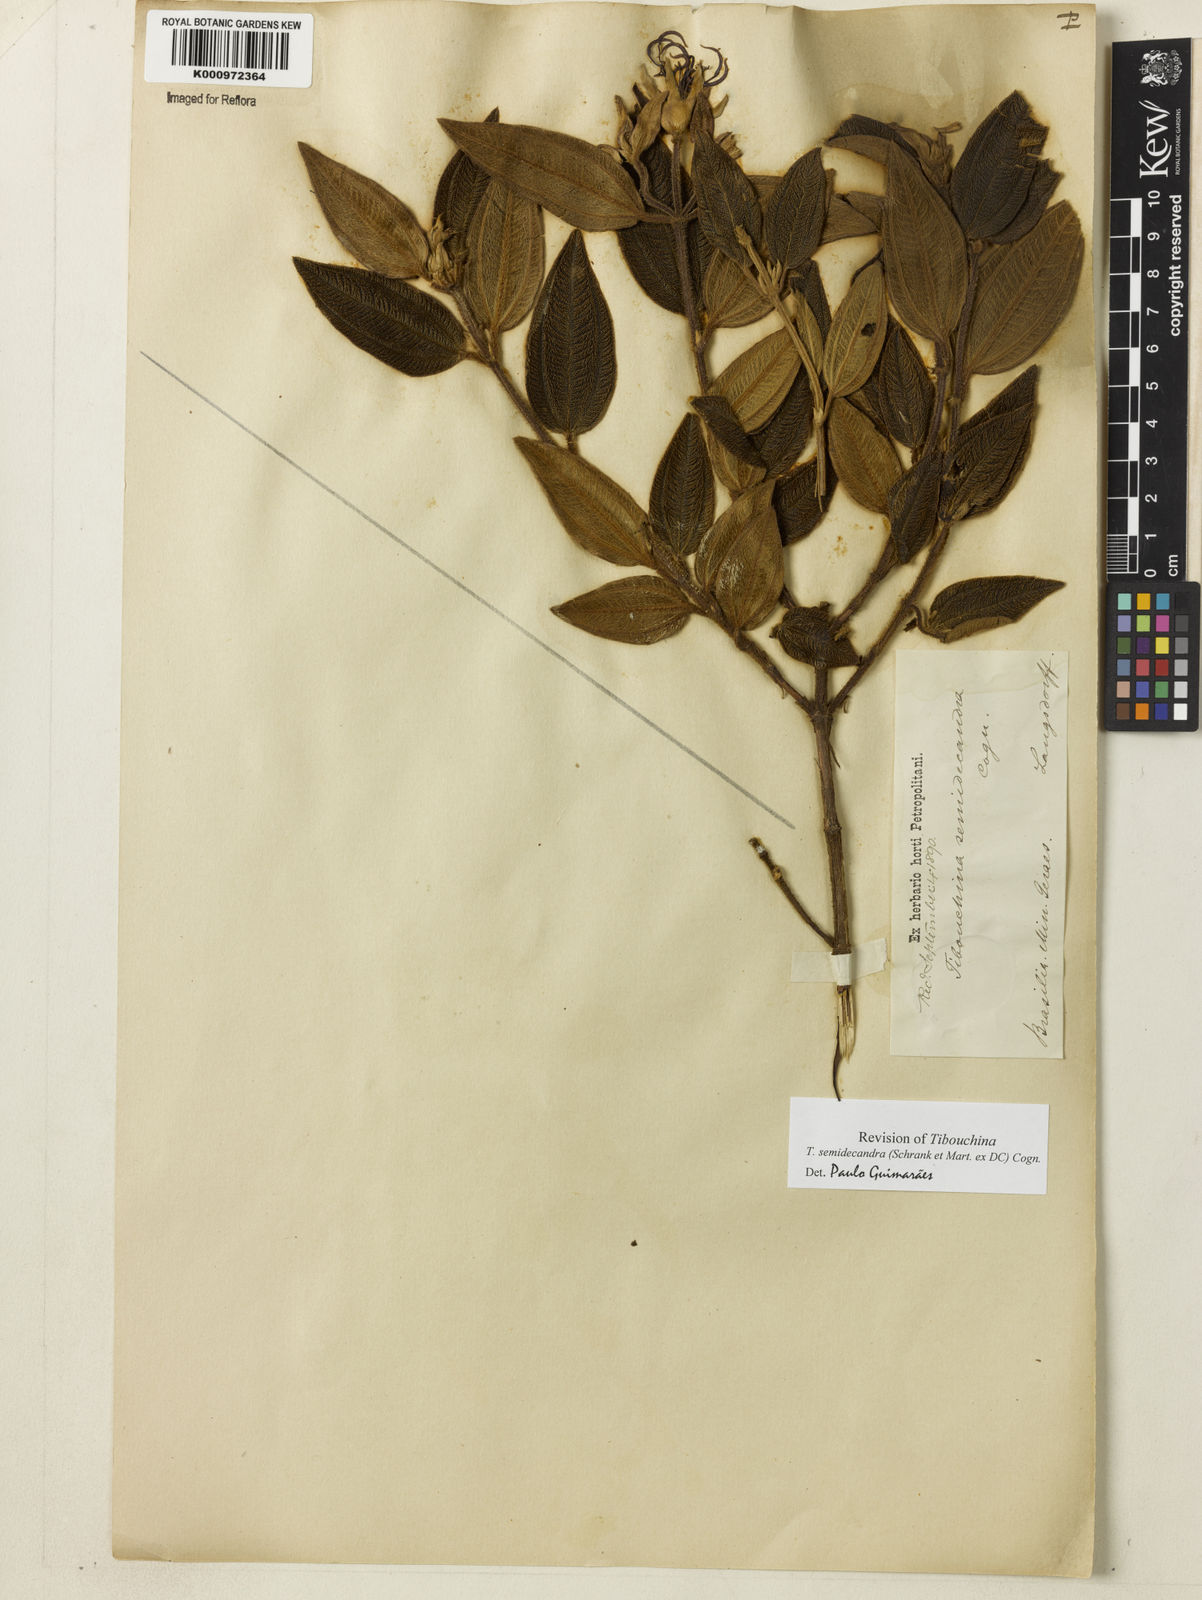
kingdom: Plantae
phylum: Tracheophyta
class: Magnoliopsida
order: Myrtales
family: Melastomataceae
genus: Pleroma
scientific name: Pleroma semidecandrum
